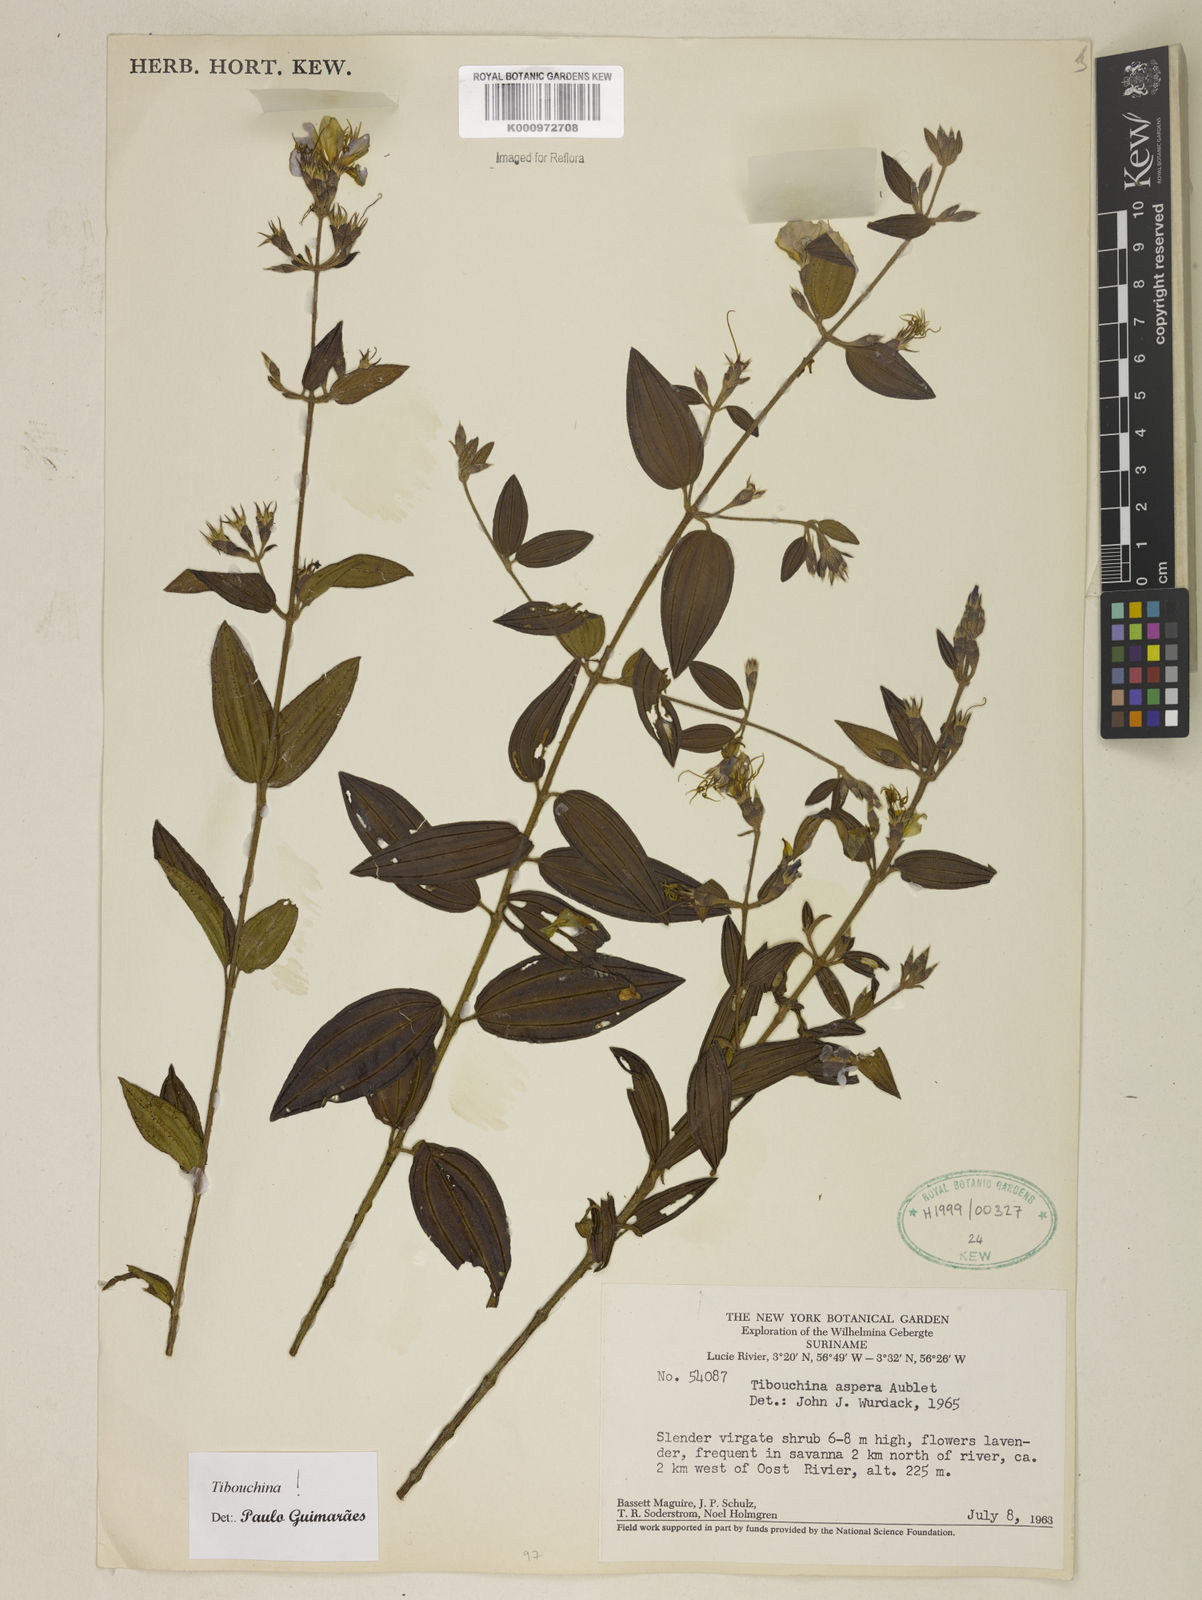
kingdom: Plantae
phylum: Tracheophyta
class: Magnoliopsida
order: Myrtales
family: Melastomataceae
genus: Tibouchina
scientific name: Tibouchina aspera
